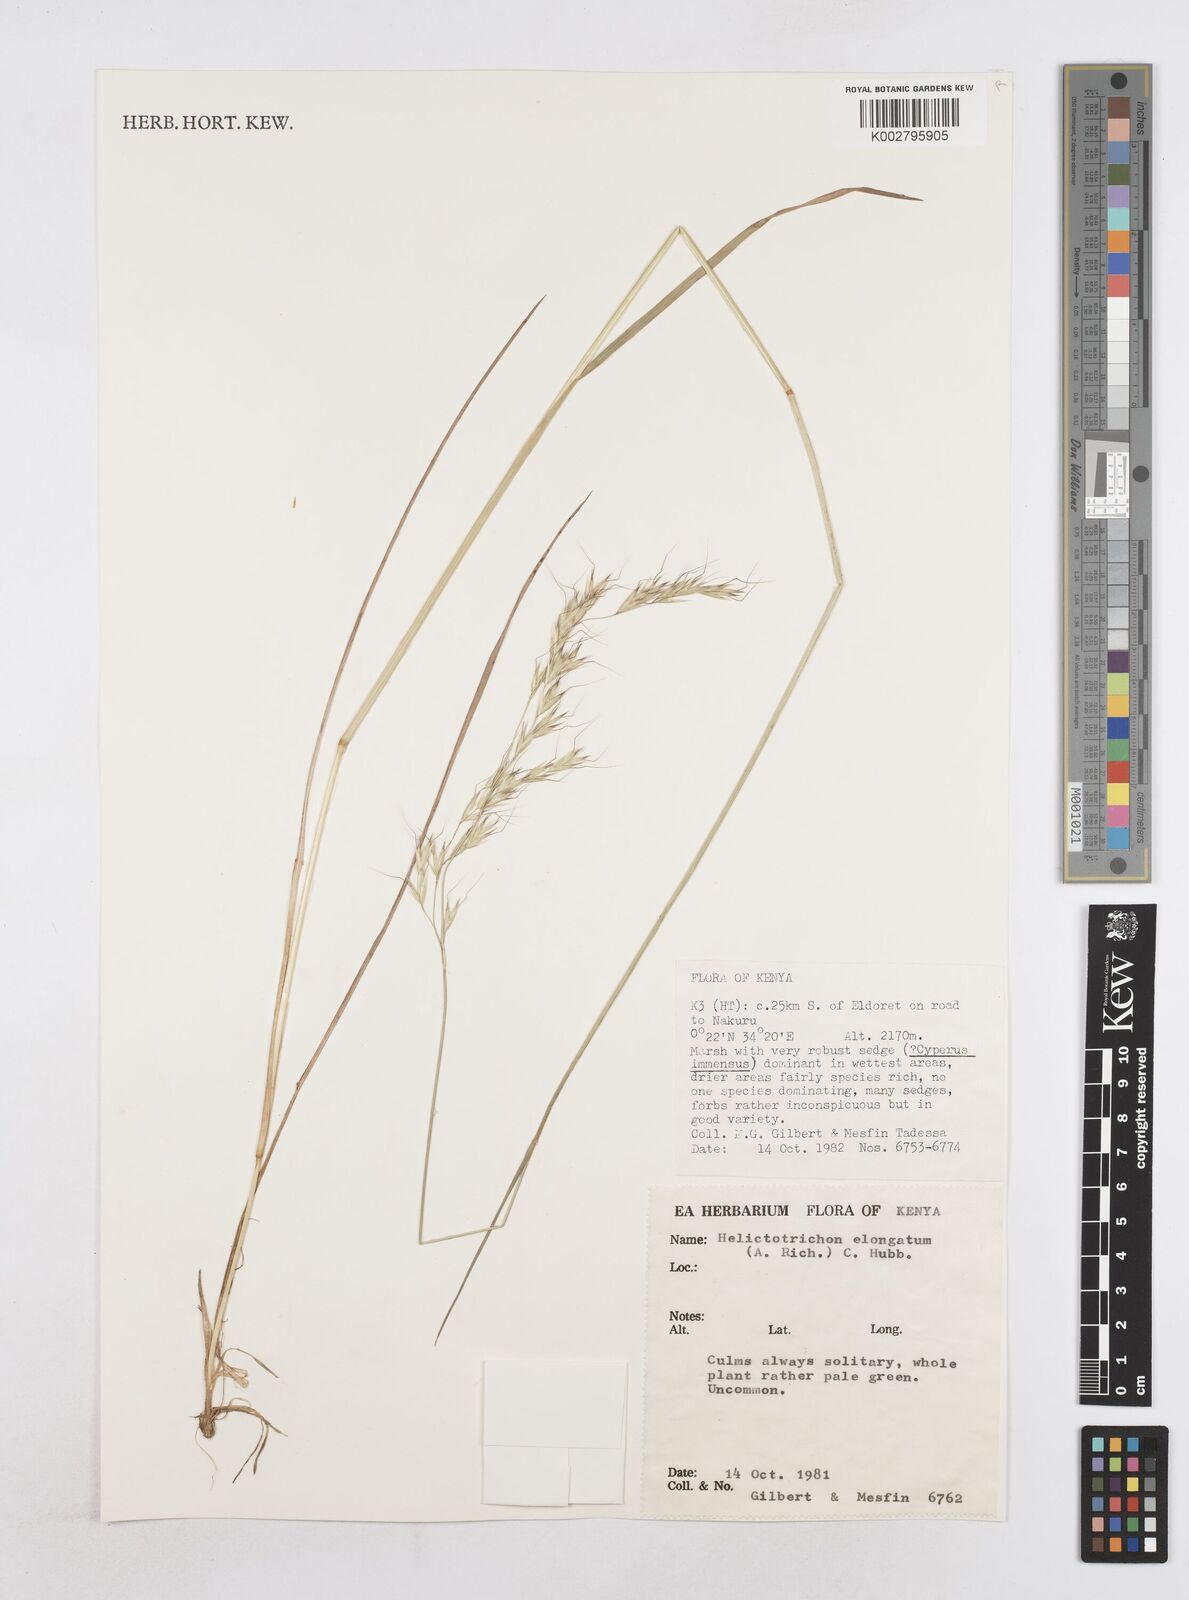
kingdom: Plantae
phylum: Tracheophyta
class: Liliopsida
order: Poales
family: Poaceae
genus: Trisetopsis
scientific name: Trisetopsis elongata
